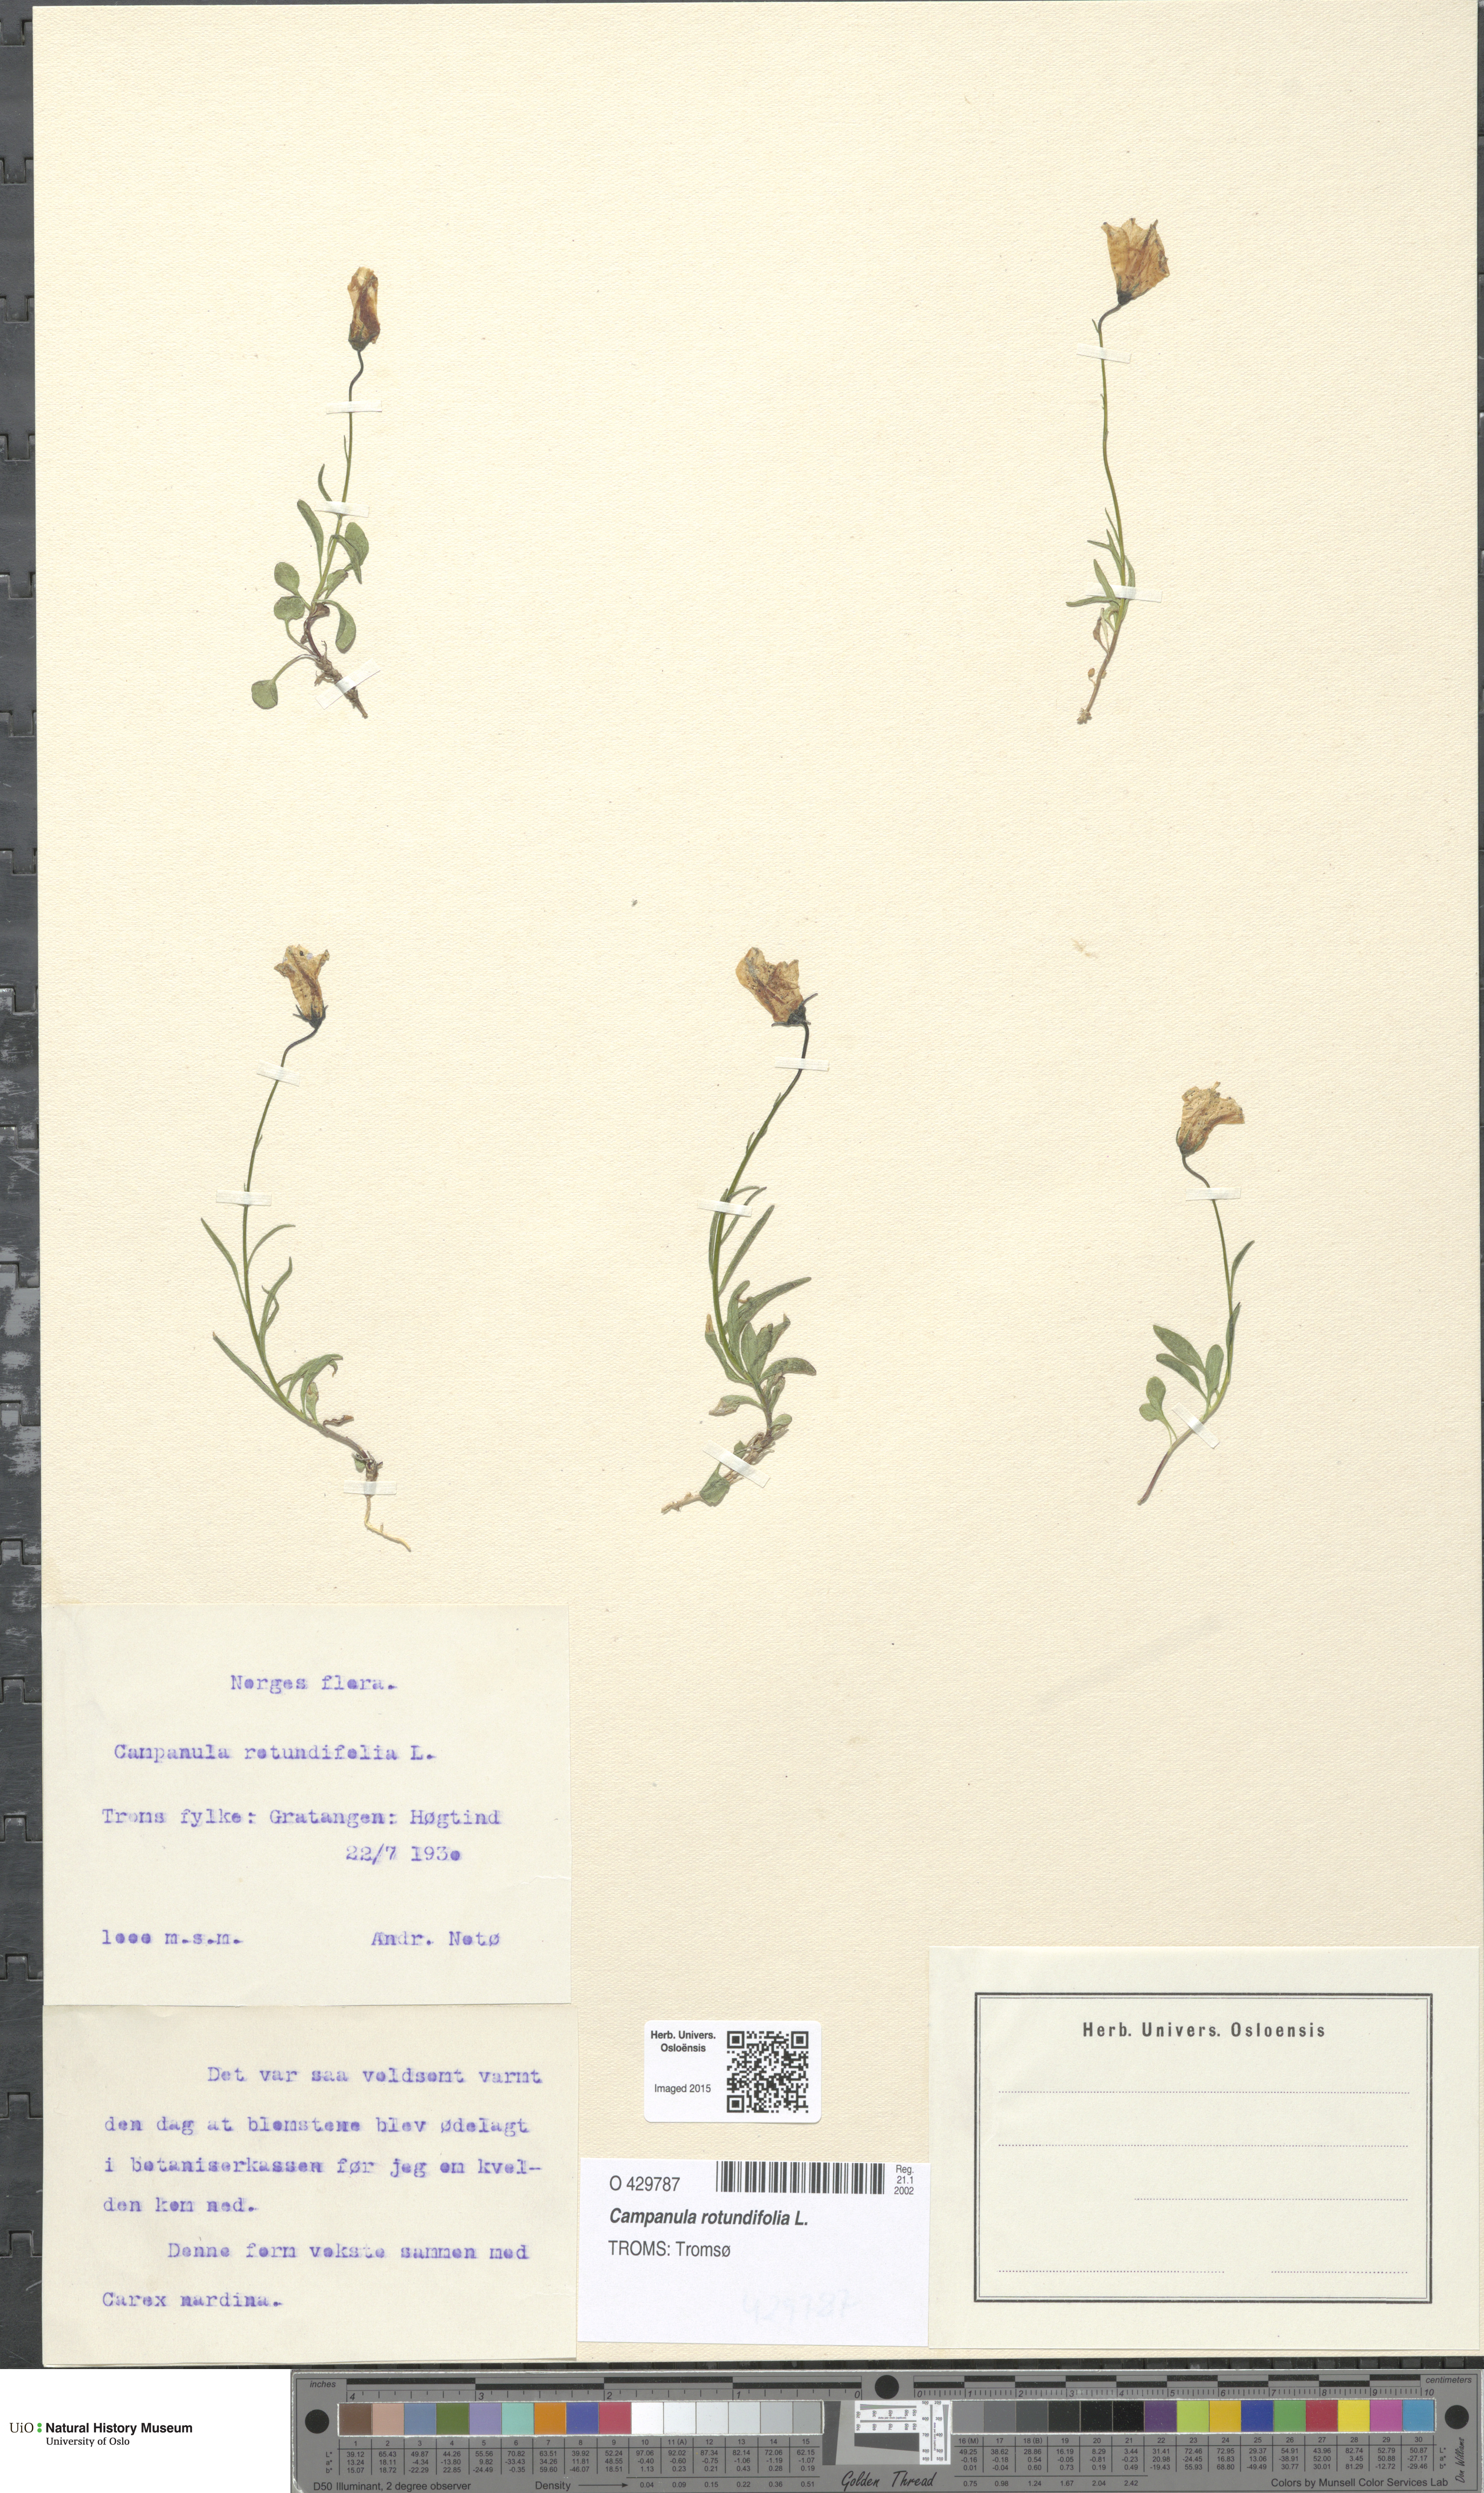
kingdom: Plantae
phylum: Tracheophyta
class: Magnoliopsida
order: Asterales
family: Campanulaceae
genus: Campanula
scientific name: Campanula rotundifolia
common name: Harebell
